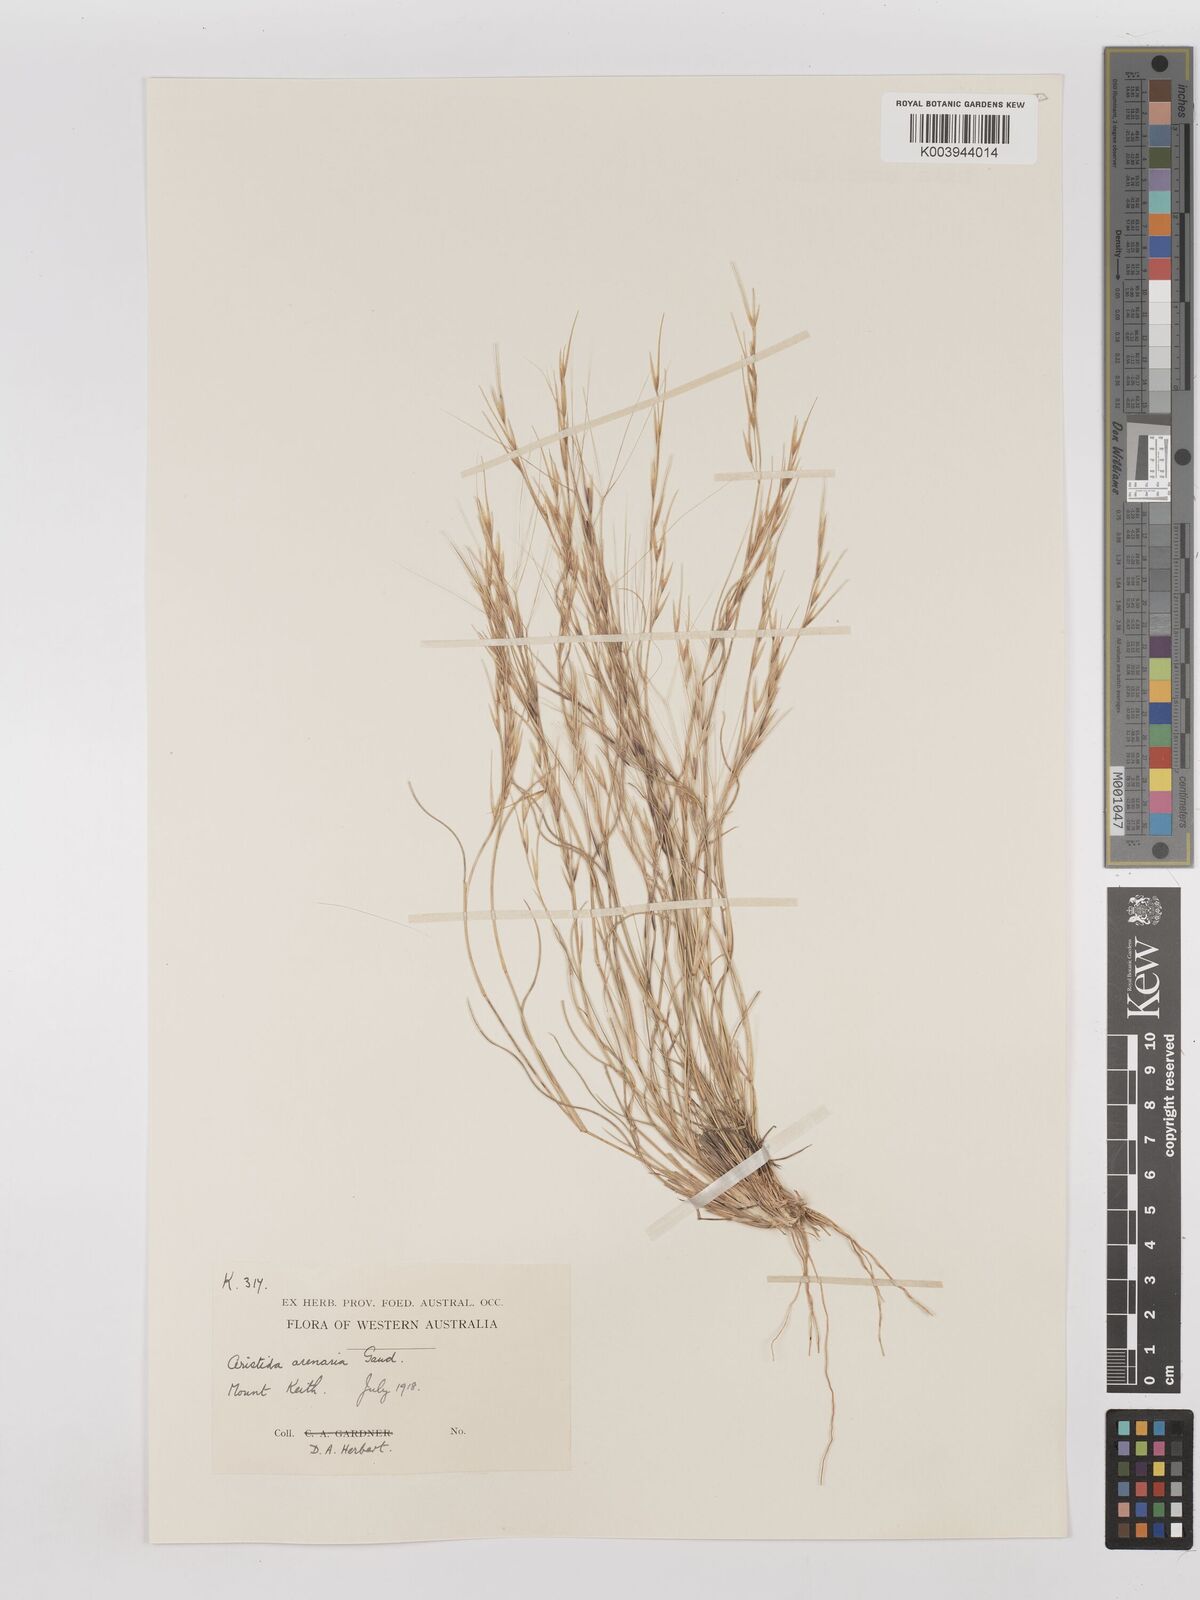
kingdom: Plantae
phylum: Tracheophyta
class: Liliopsida
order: Poales
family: Poaceae
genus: Aristida
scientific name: Aristida contorta
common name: Bunch kerosene grass
